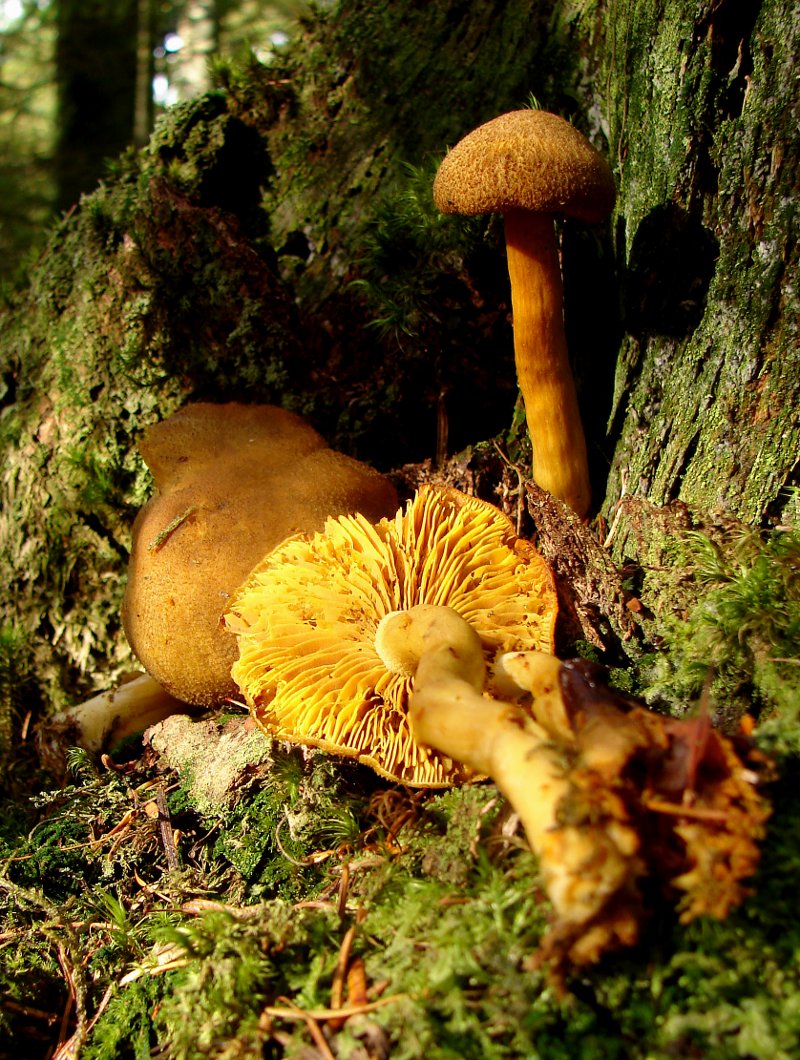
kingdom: Fungi
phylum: Basidiomycota
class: Agaricomycetes
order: Agaricales
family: Tricholomataceae
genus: Tricholomopsis
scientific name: Tricholomopsis decora
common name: sortskællet væbnerhat
